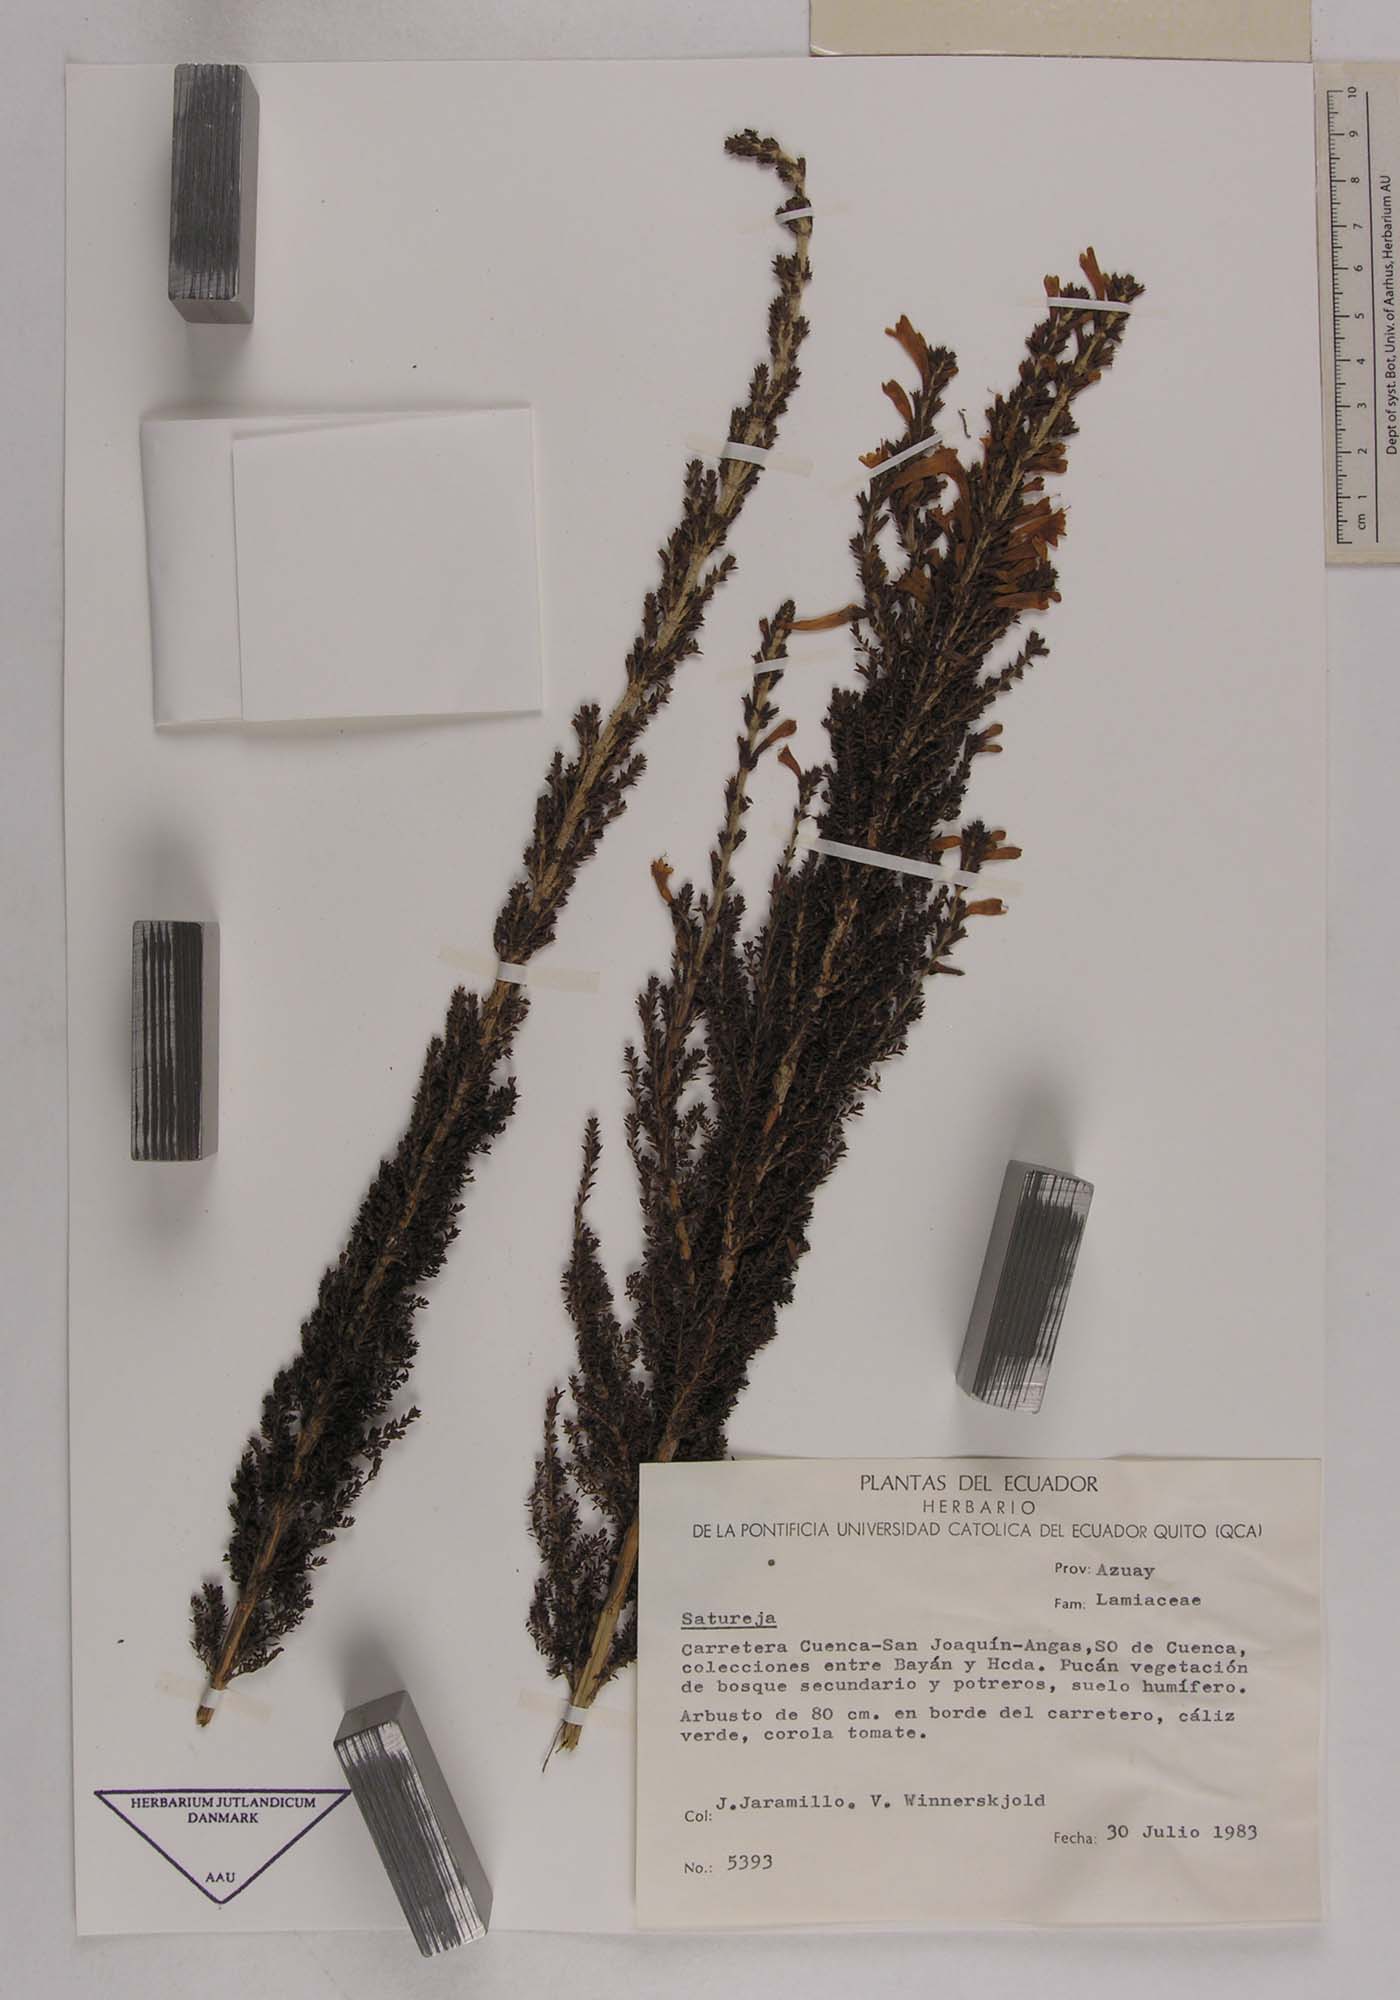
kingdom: Plantae
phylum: Tracheophyta
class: Magnoliopsida
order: Lamiales
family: Lamiaceae
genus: Satureja
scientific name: Satureja
